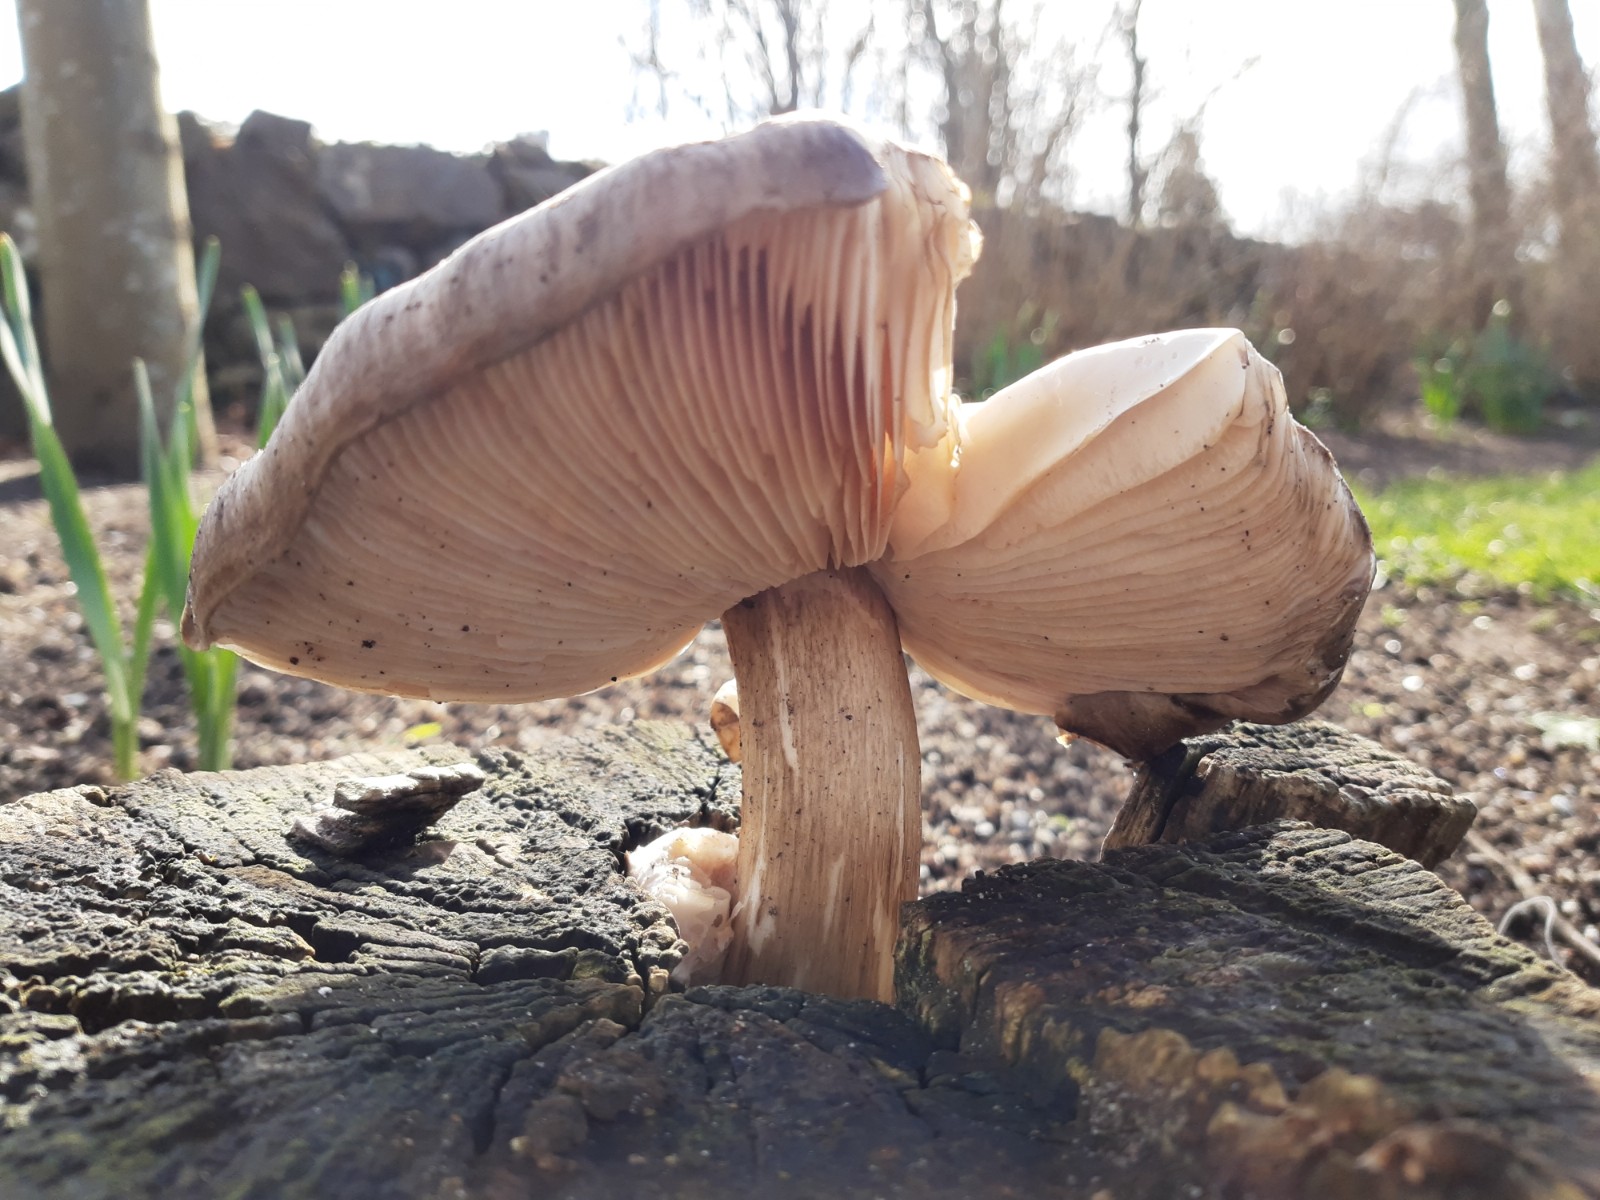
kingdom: Fungi
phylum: Basidiomycota
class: Agaricomycetes
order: Agaricales
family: Pluteaceae
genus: Pluteus
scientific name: Pluteus cervinus
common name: sodfarvet skærmhat
